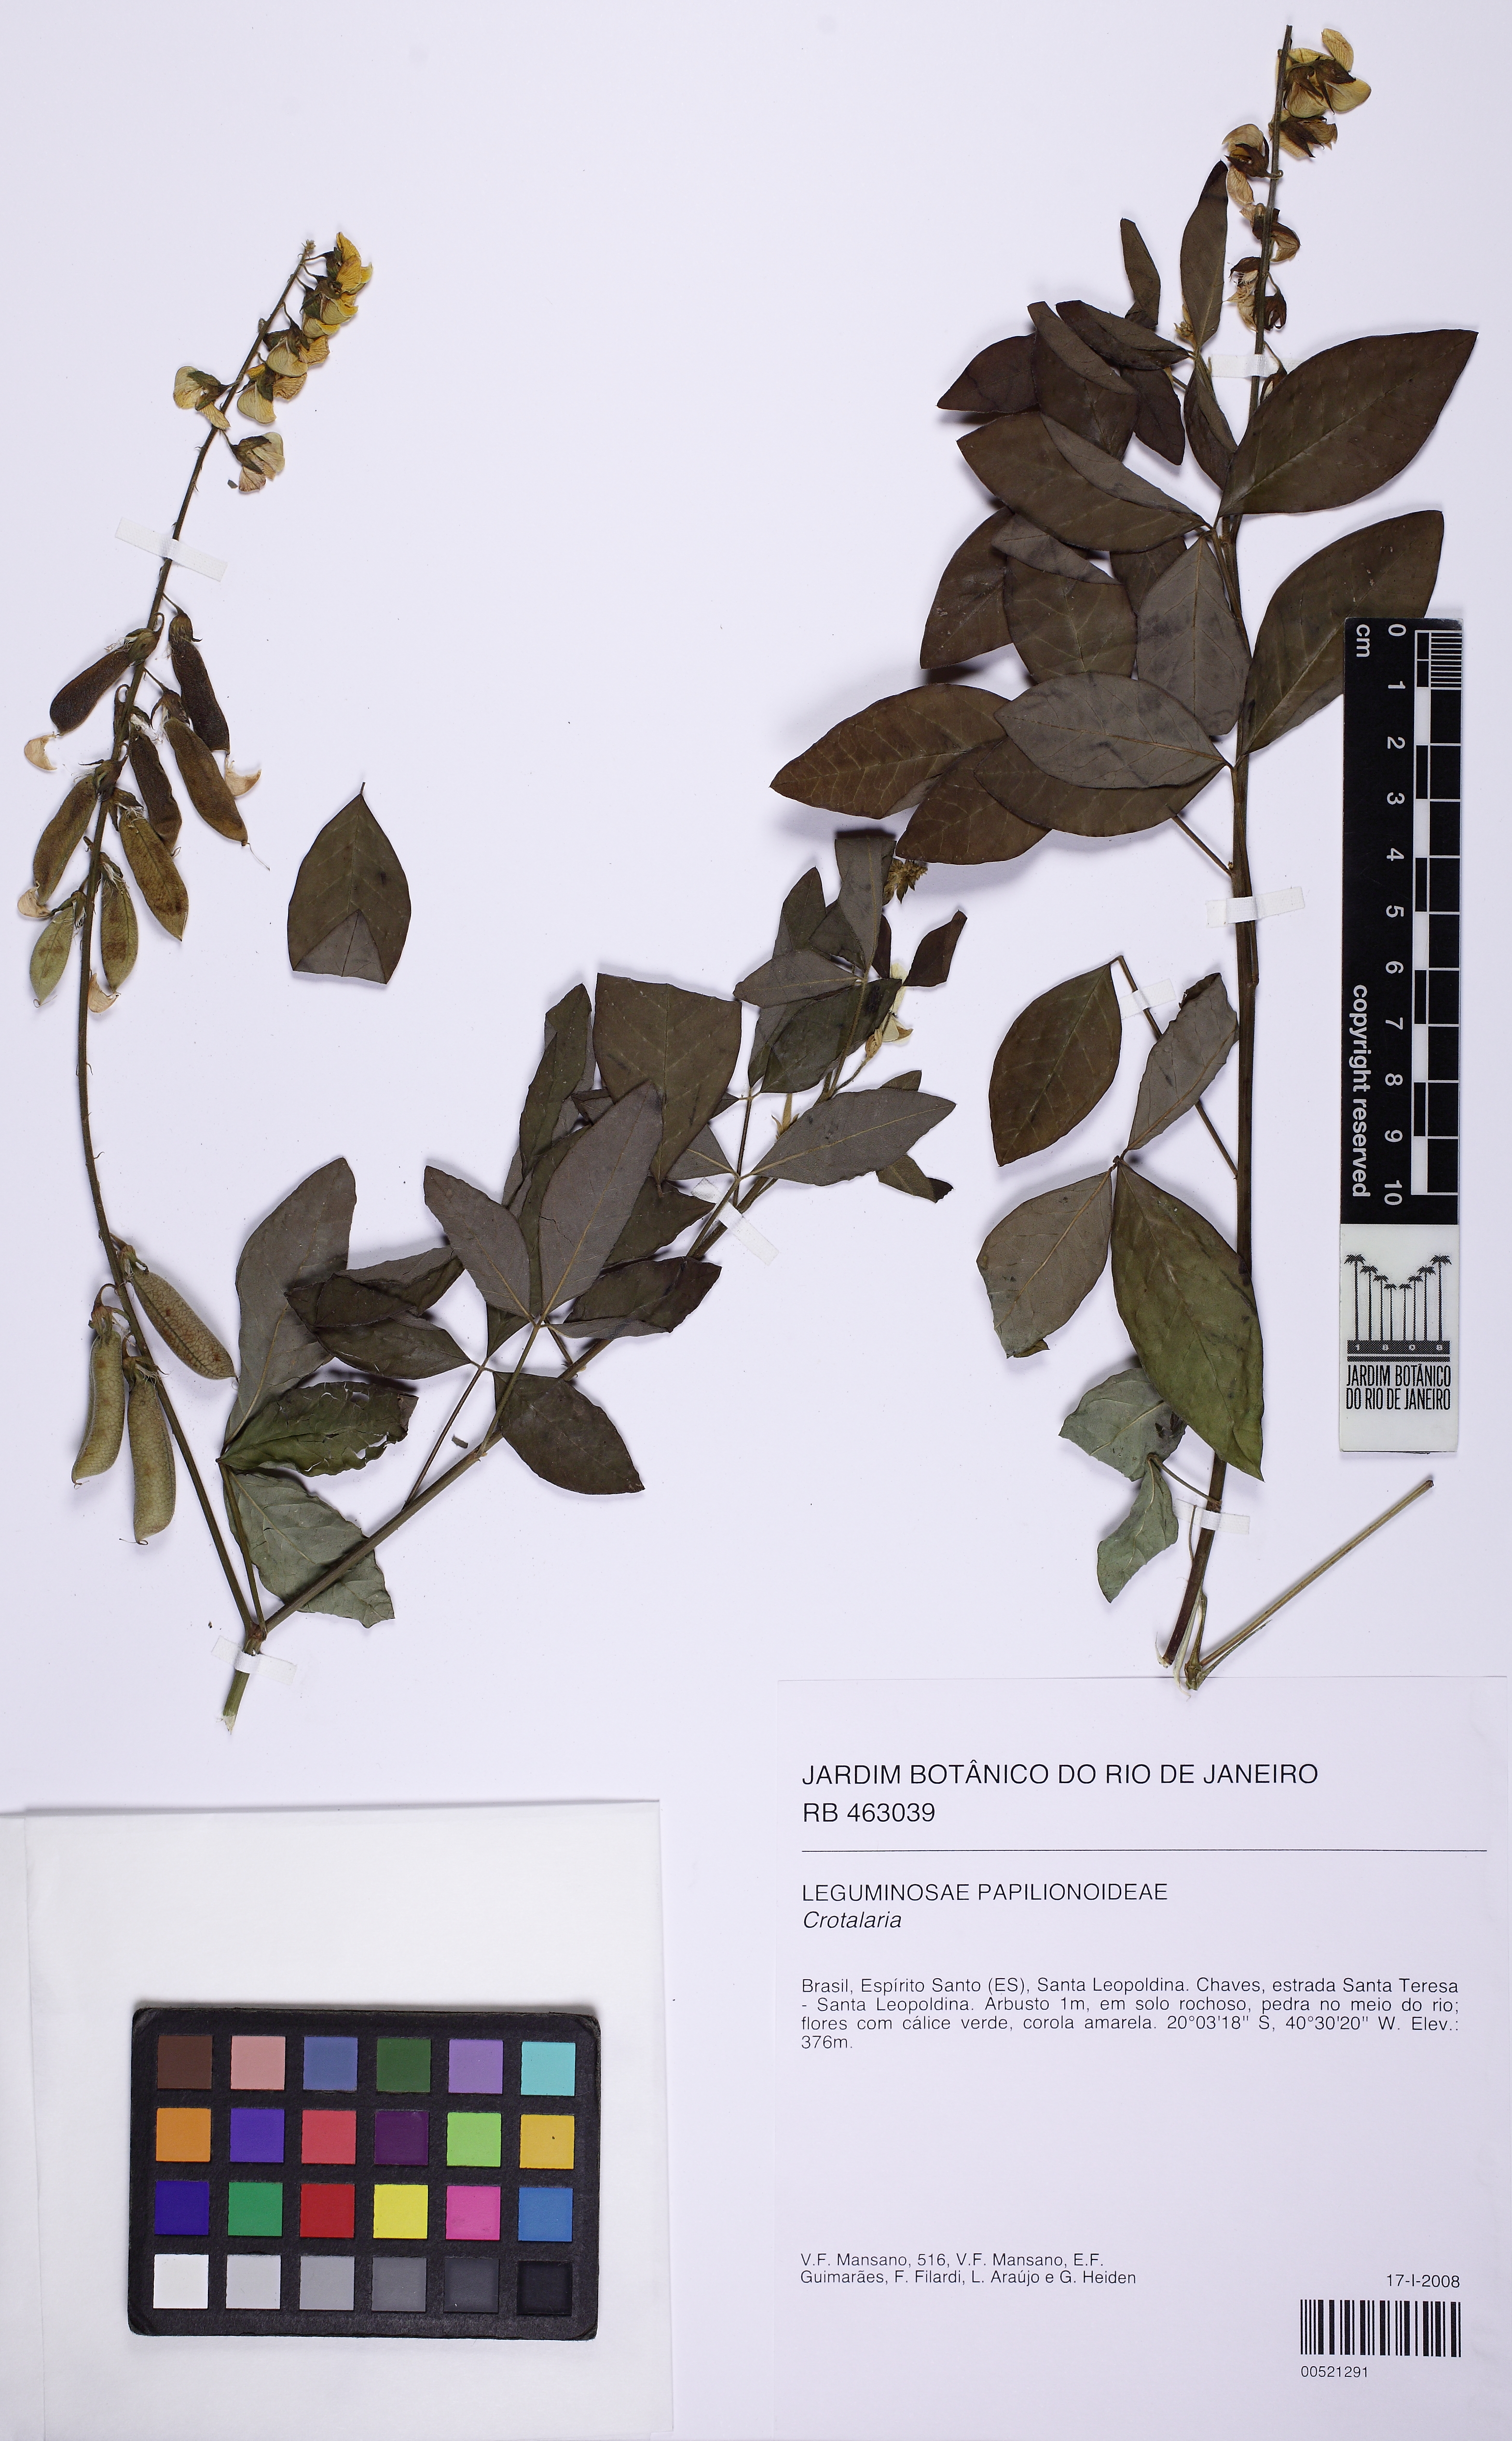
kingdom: Plantae
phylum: Tracheophyta
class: Magnoliopsida
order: Fabales
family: Fabaceae
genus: Crotalaria
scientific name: Crotalaria vitellina
